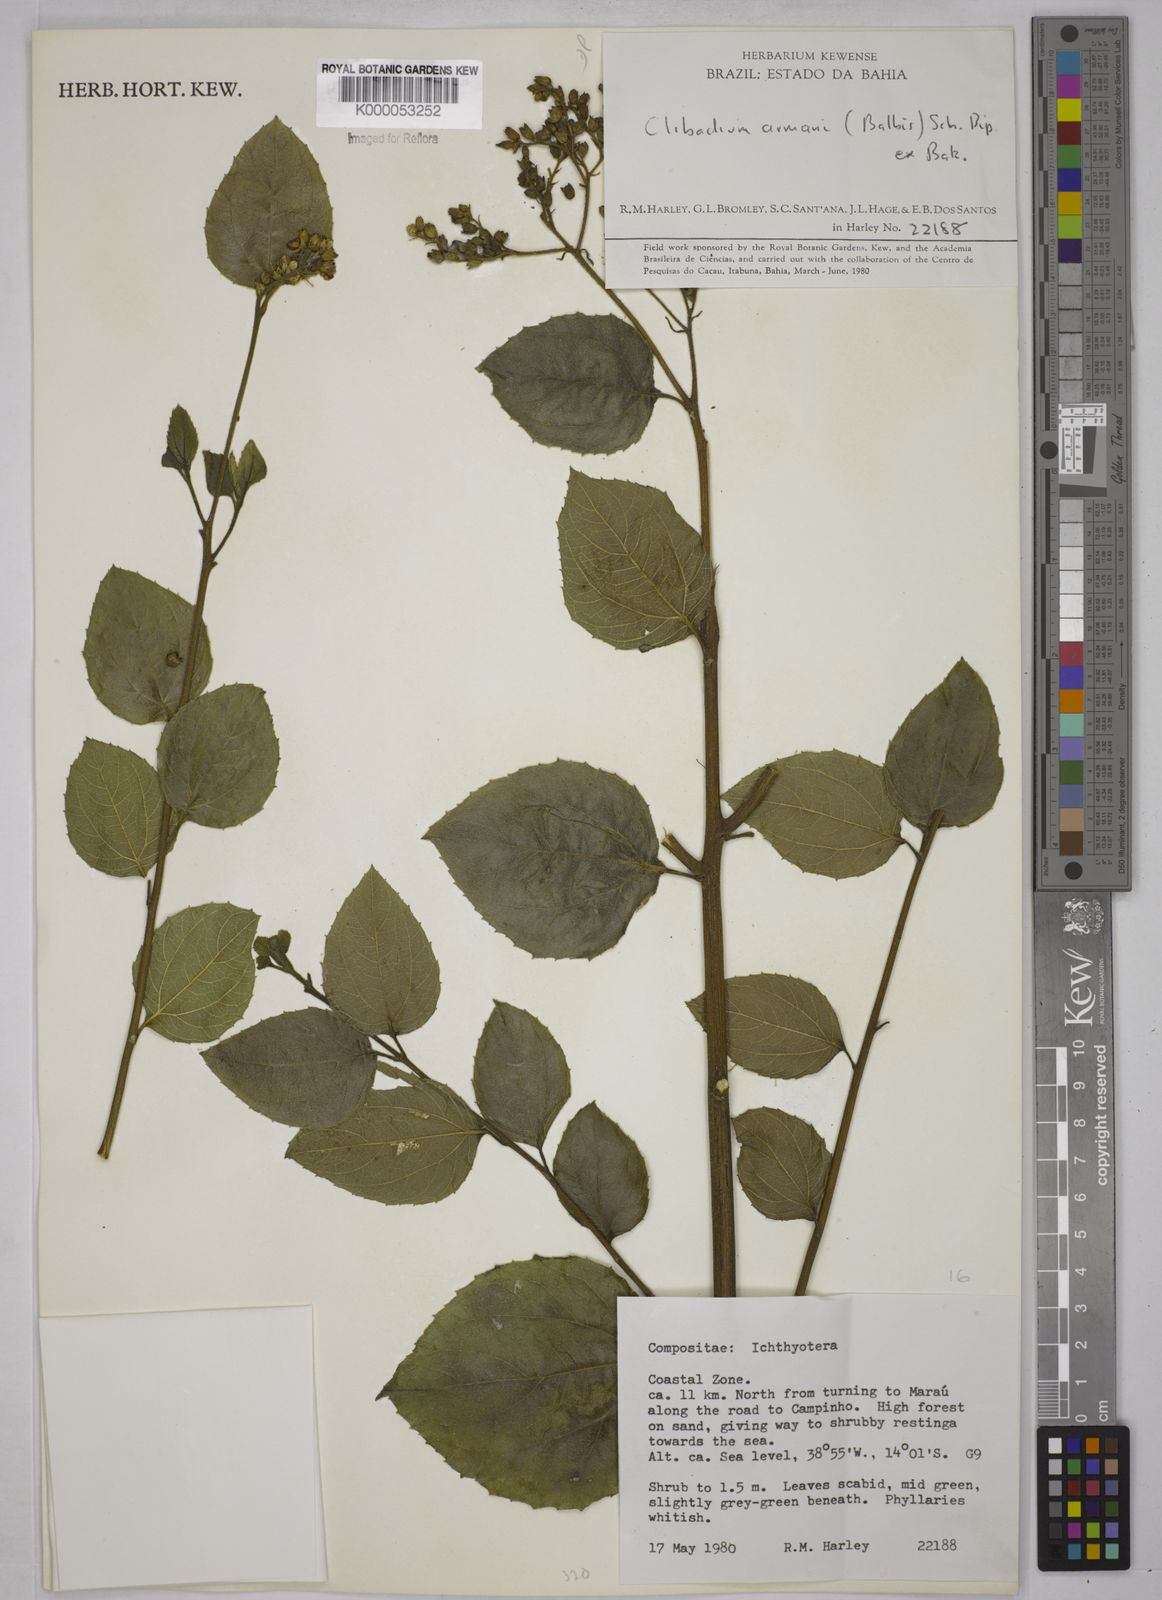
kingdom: Plantae
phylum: Tracheophyta
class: Magnoliopsida
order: Asterales
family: Asteraceae
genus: Clibadium
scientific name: Clibadium armanii
